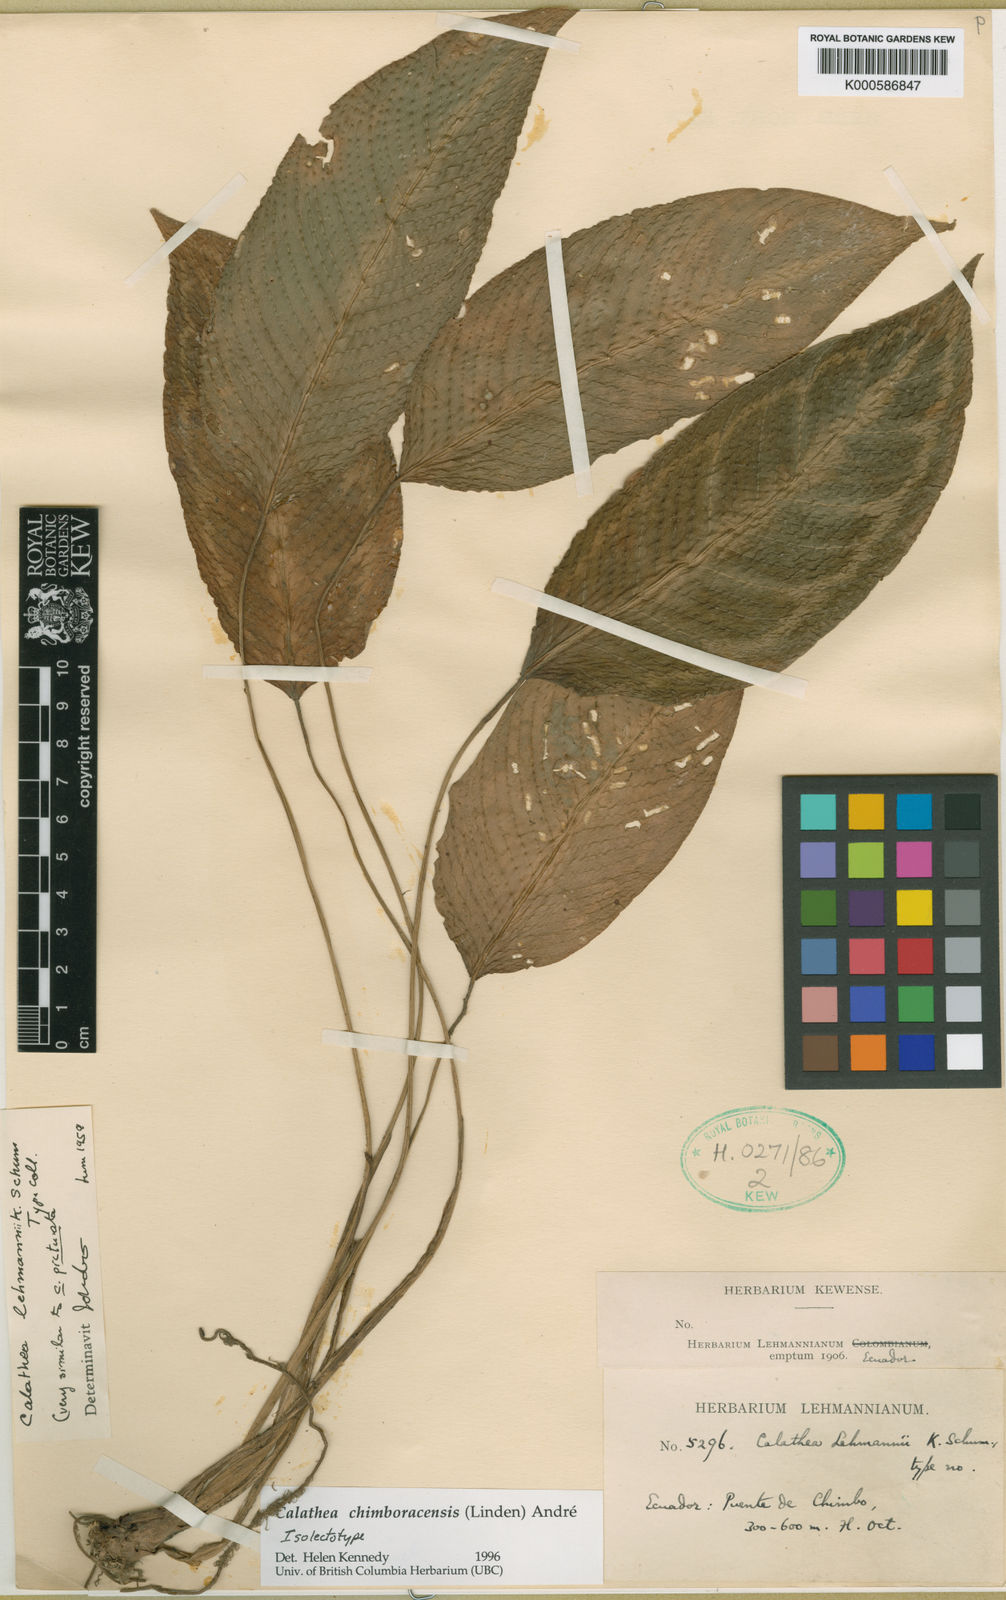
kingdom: Plantae
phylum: Tracheophyta
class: Liliopsida
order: Zingiberales
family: Marantaceae
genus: Goeppertia
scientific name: Goeppertia chimboracensis
